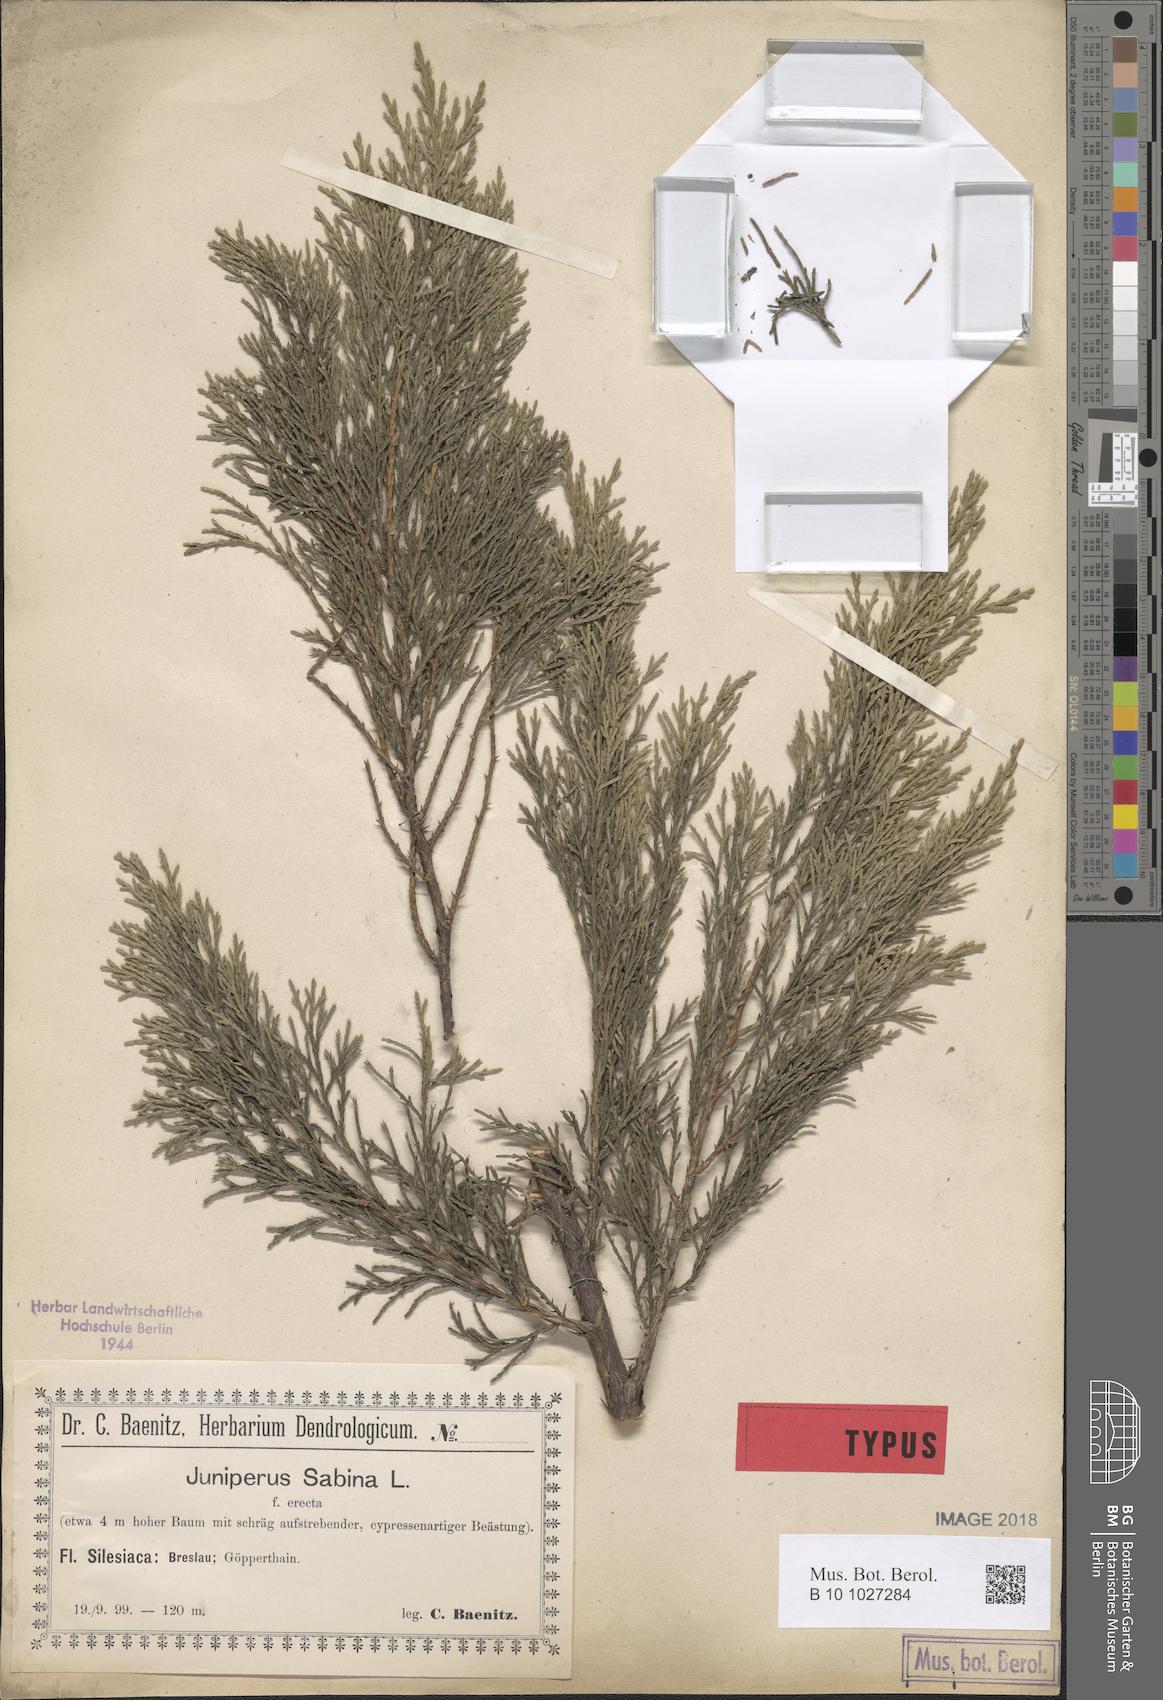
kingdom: Plantae
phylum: Tracheophyta
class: Pinopsida
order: Pinales
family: Cupressaceae
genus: Juniperus
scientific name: Juniperus sabina
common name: Savin
